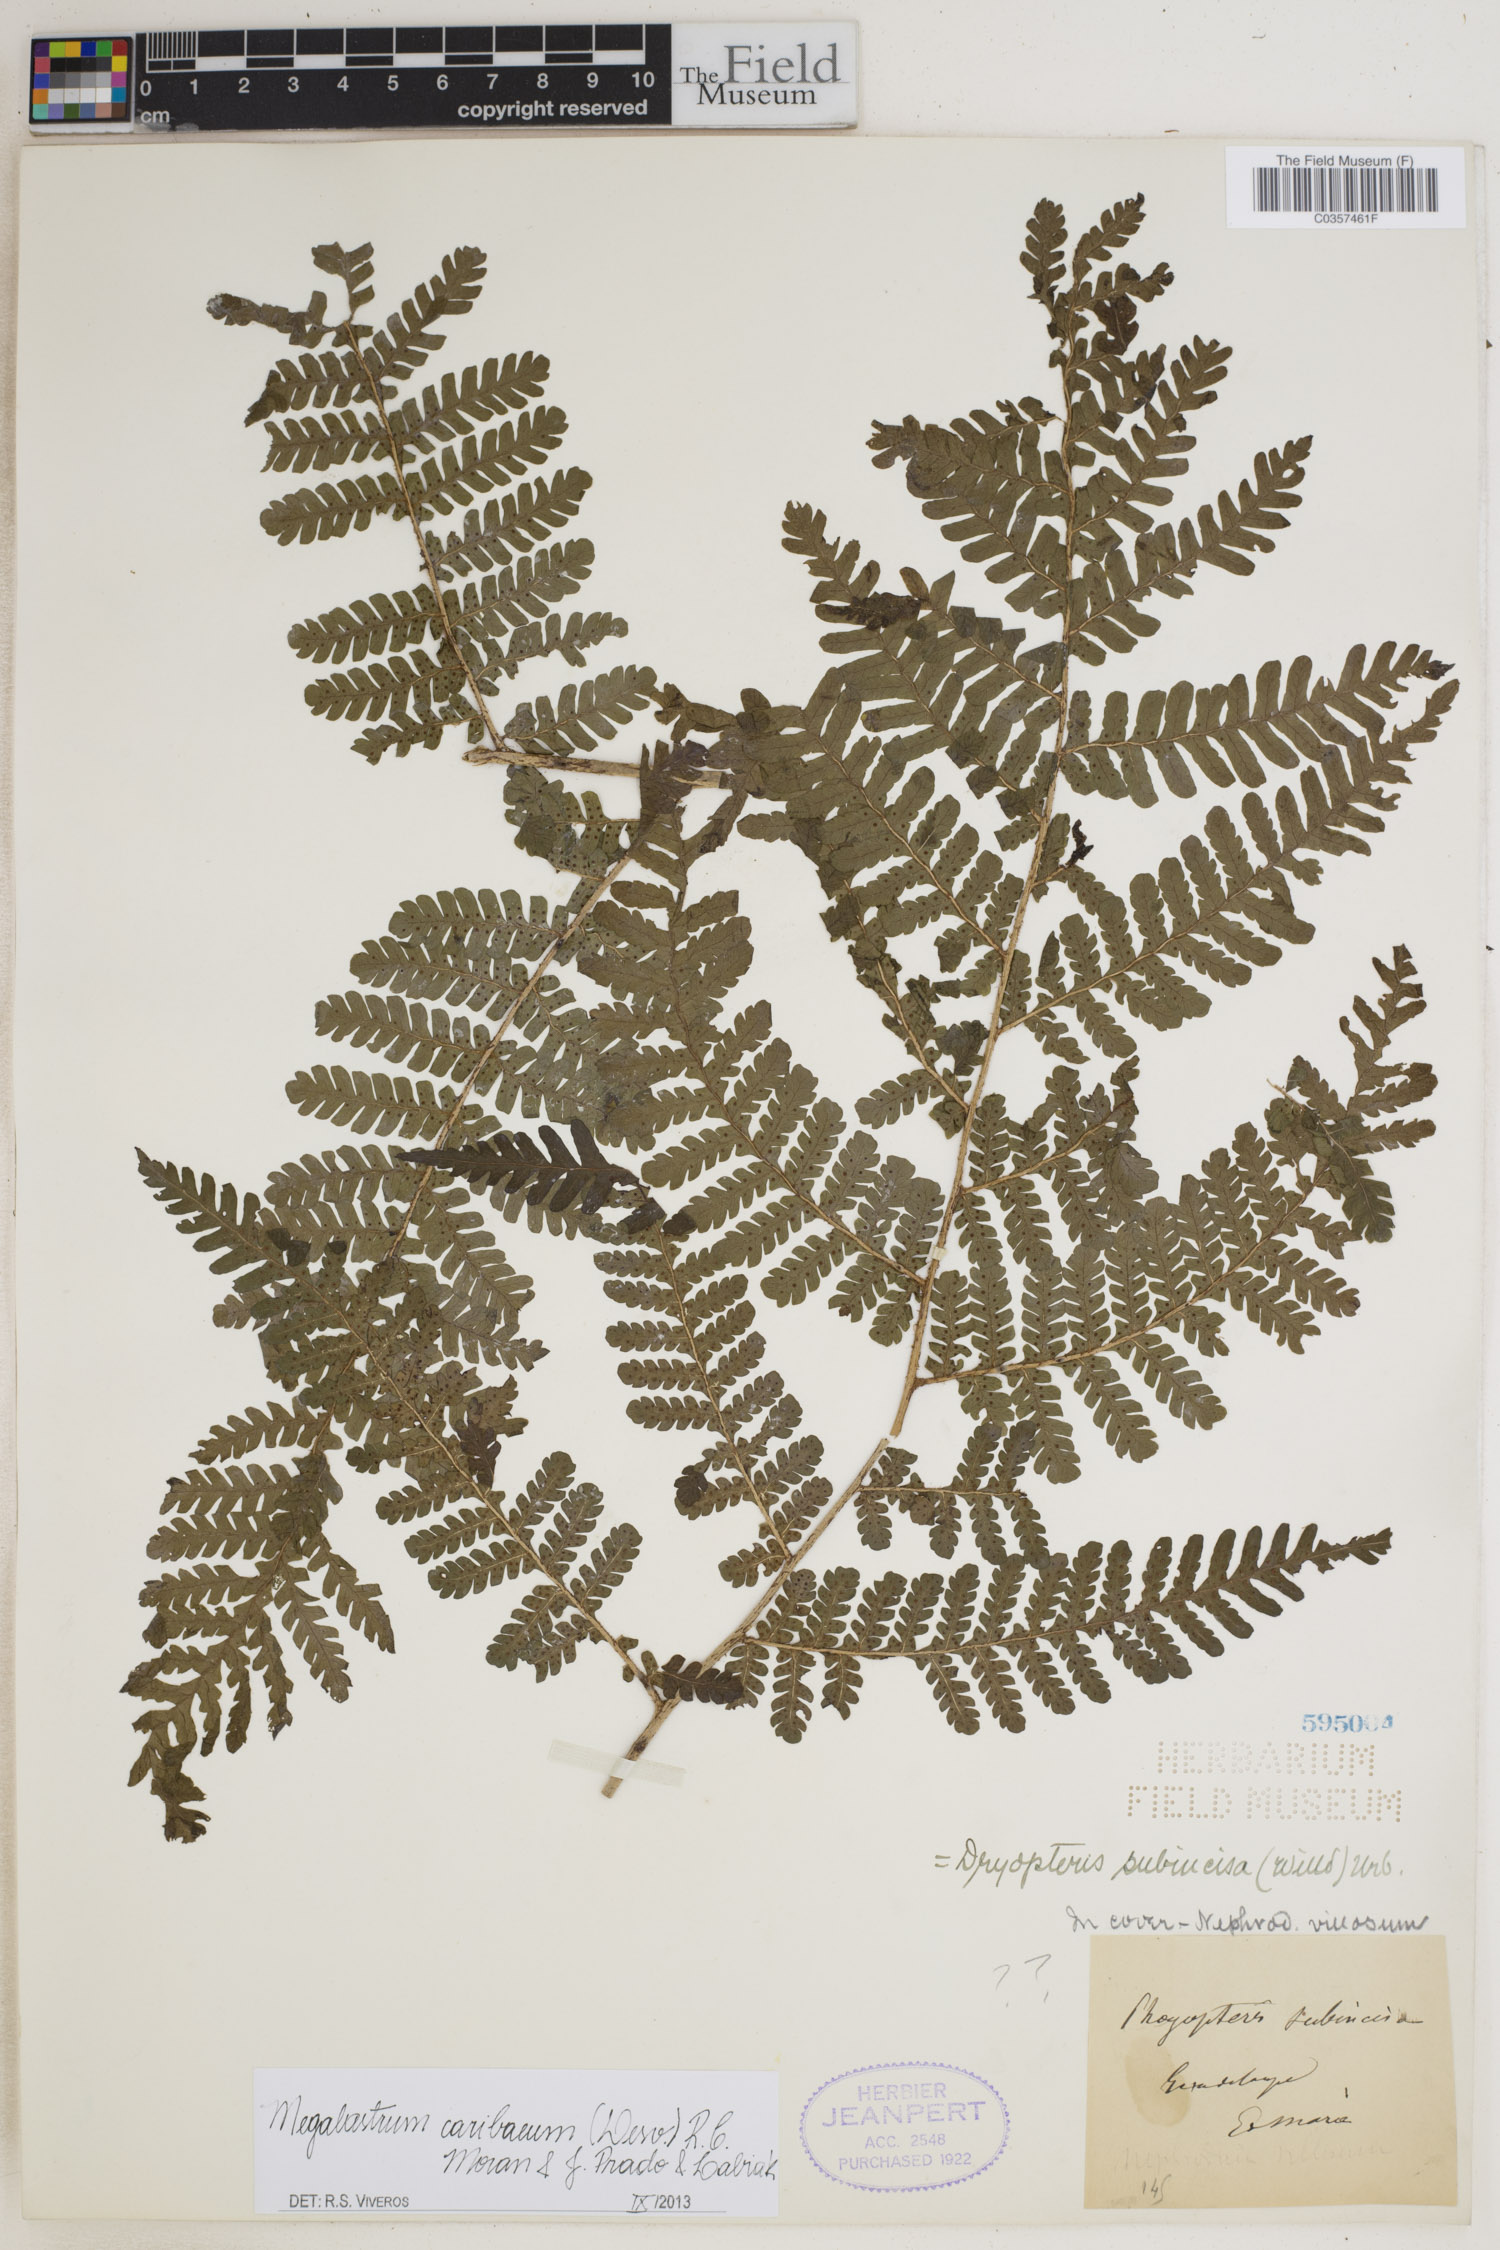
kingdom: Plantae
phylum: Tracheophyta
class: Polypodiopsida
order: Polypodiales
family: Dryopteridaceae
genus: Megalastrum
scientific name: Megalastrum caribaeum
